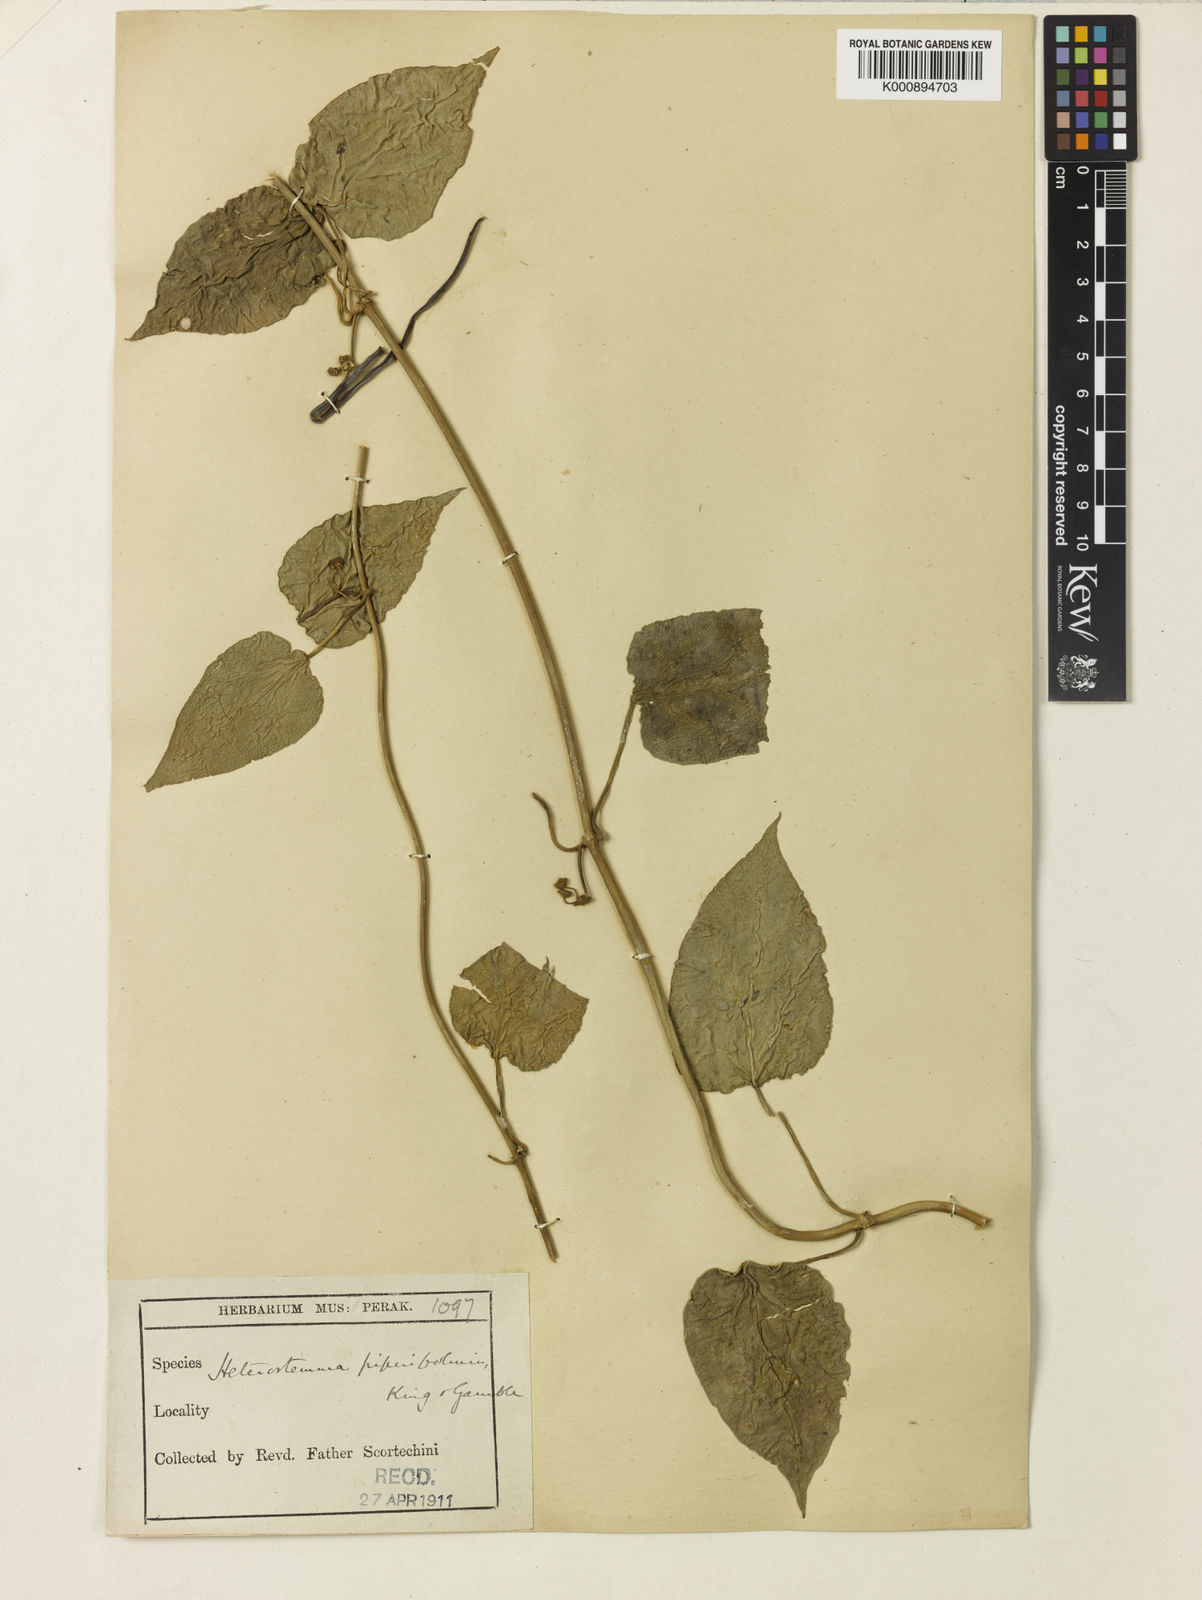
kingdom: Plantae
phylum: Tracheophyta
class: Magnoliopsida
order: Gentianales
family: Apocynaceae
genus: Heterostemma
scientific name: Heterostemma piperifolium
